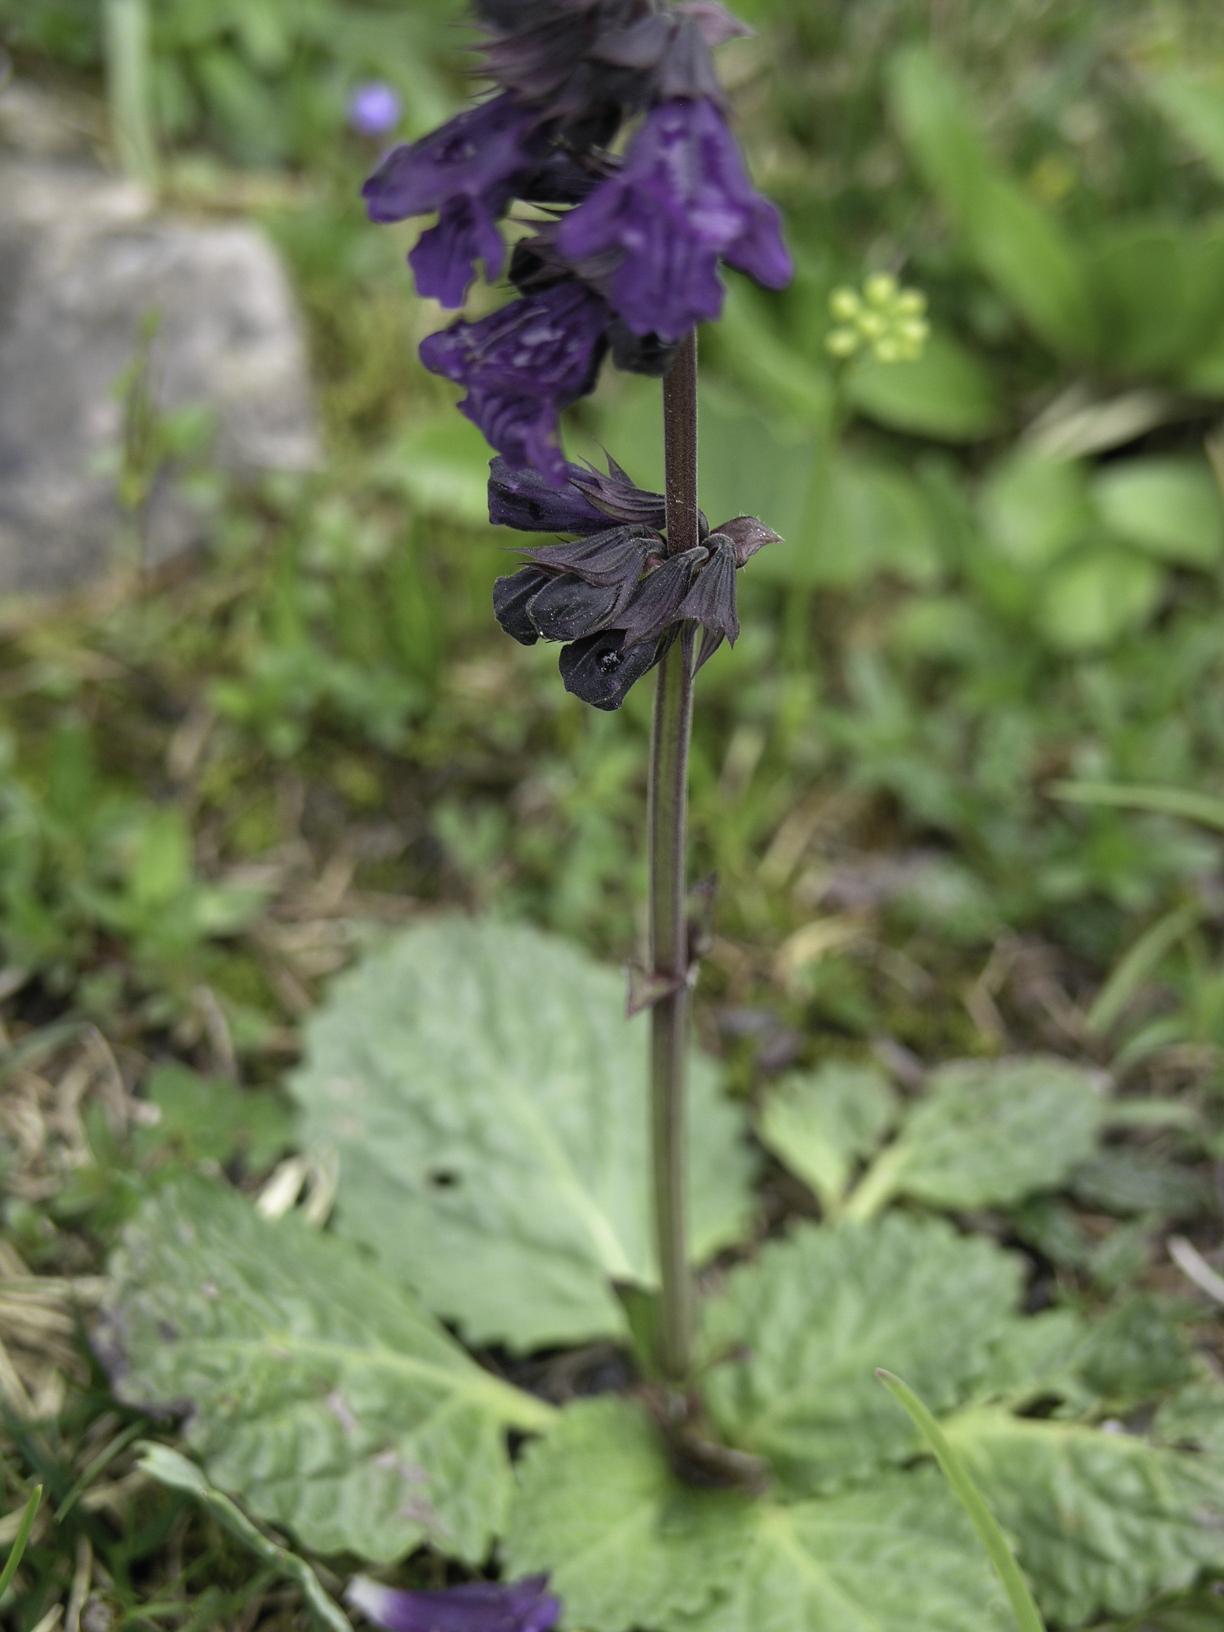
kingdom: Plantae
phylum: Tracheophyta
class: Magnoliopsida
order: Lamiales
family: Lamiaceae
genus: Horminum
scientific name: Horminum pyrenaicum
